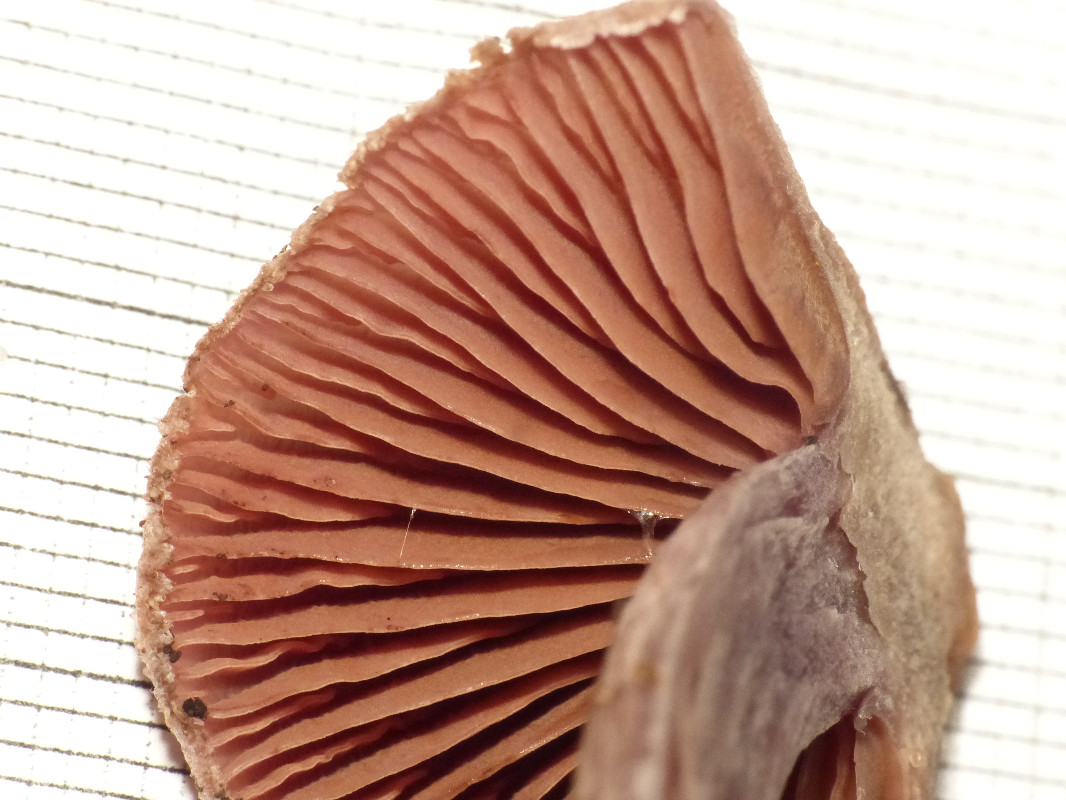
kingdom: Fungi
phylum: Basidiomycota
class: Agaricomycetes
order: Agaricales
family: Cortinariaceae
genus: Cortinarius
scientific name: Cortinarius
